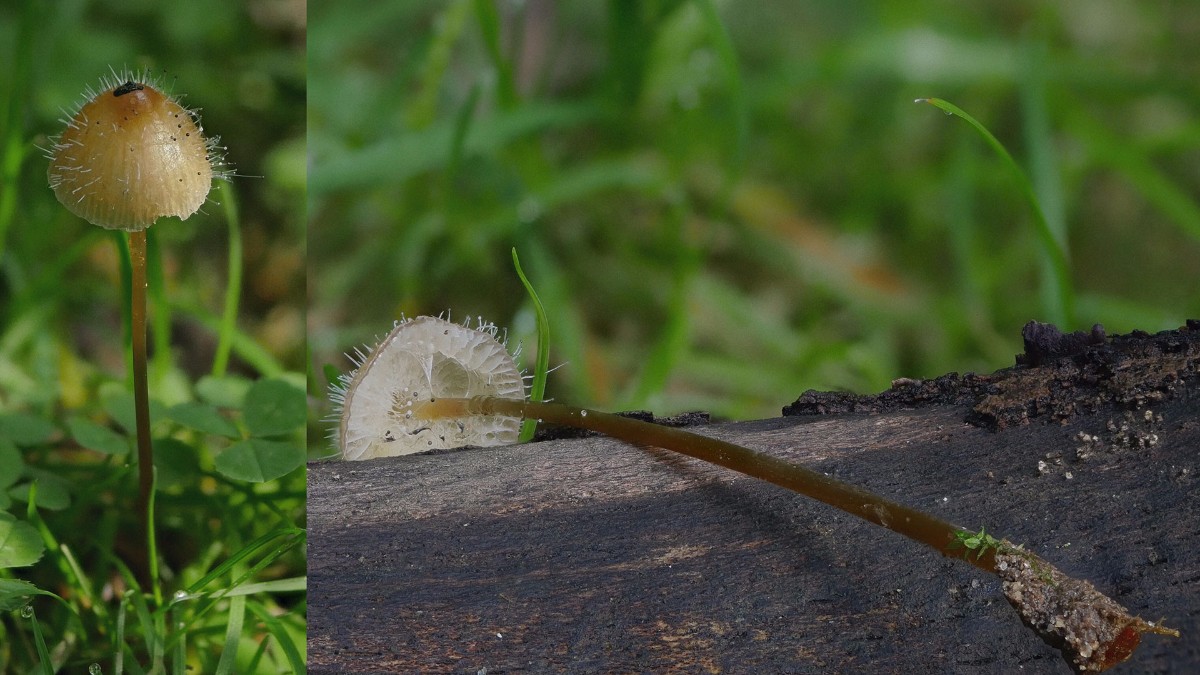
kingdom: Fungi
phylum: Mucoromycota
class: Mucoromycetes
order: Mucorales
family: Phycomycetaceae
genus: Spinellus
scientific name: Spinellus fusiger
